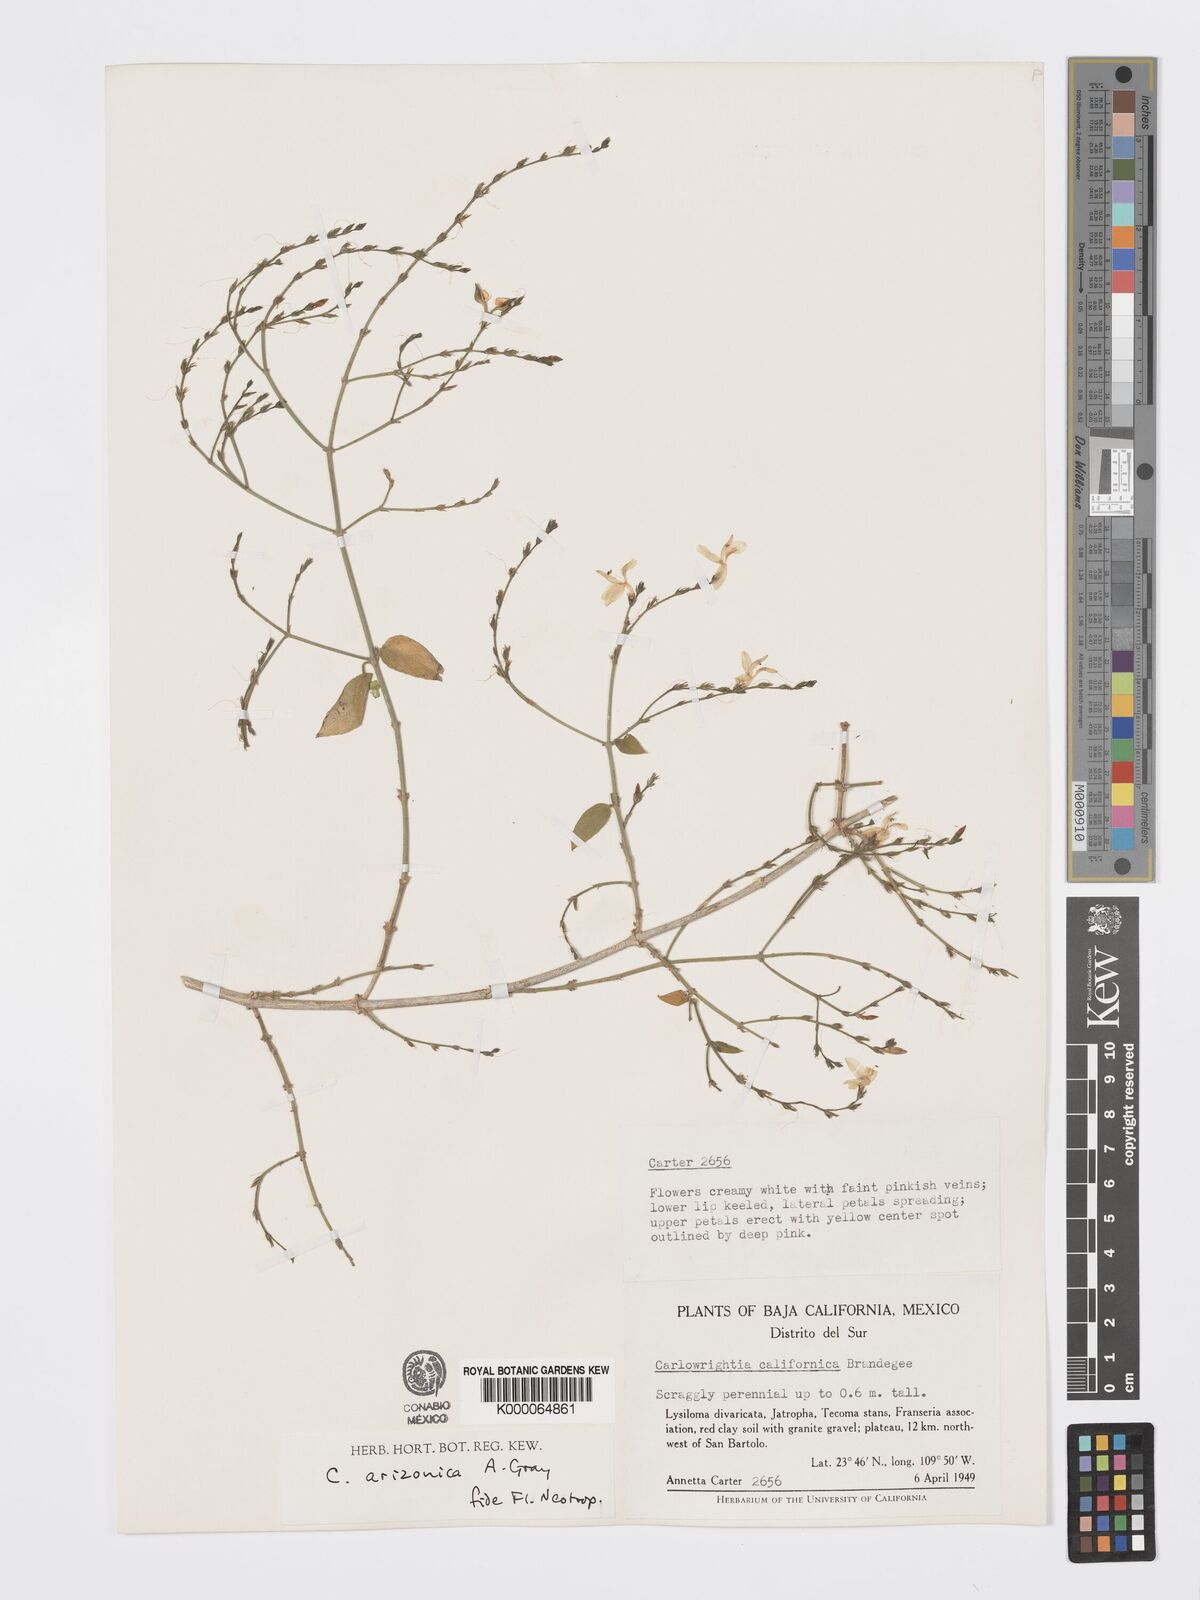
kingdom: Plantae
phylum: Tracheophyta
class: Magnoliopsida
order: Lamiales
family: Acanthaceae
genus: Carlowrightia
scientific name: Carlowrightia arizonica
